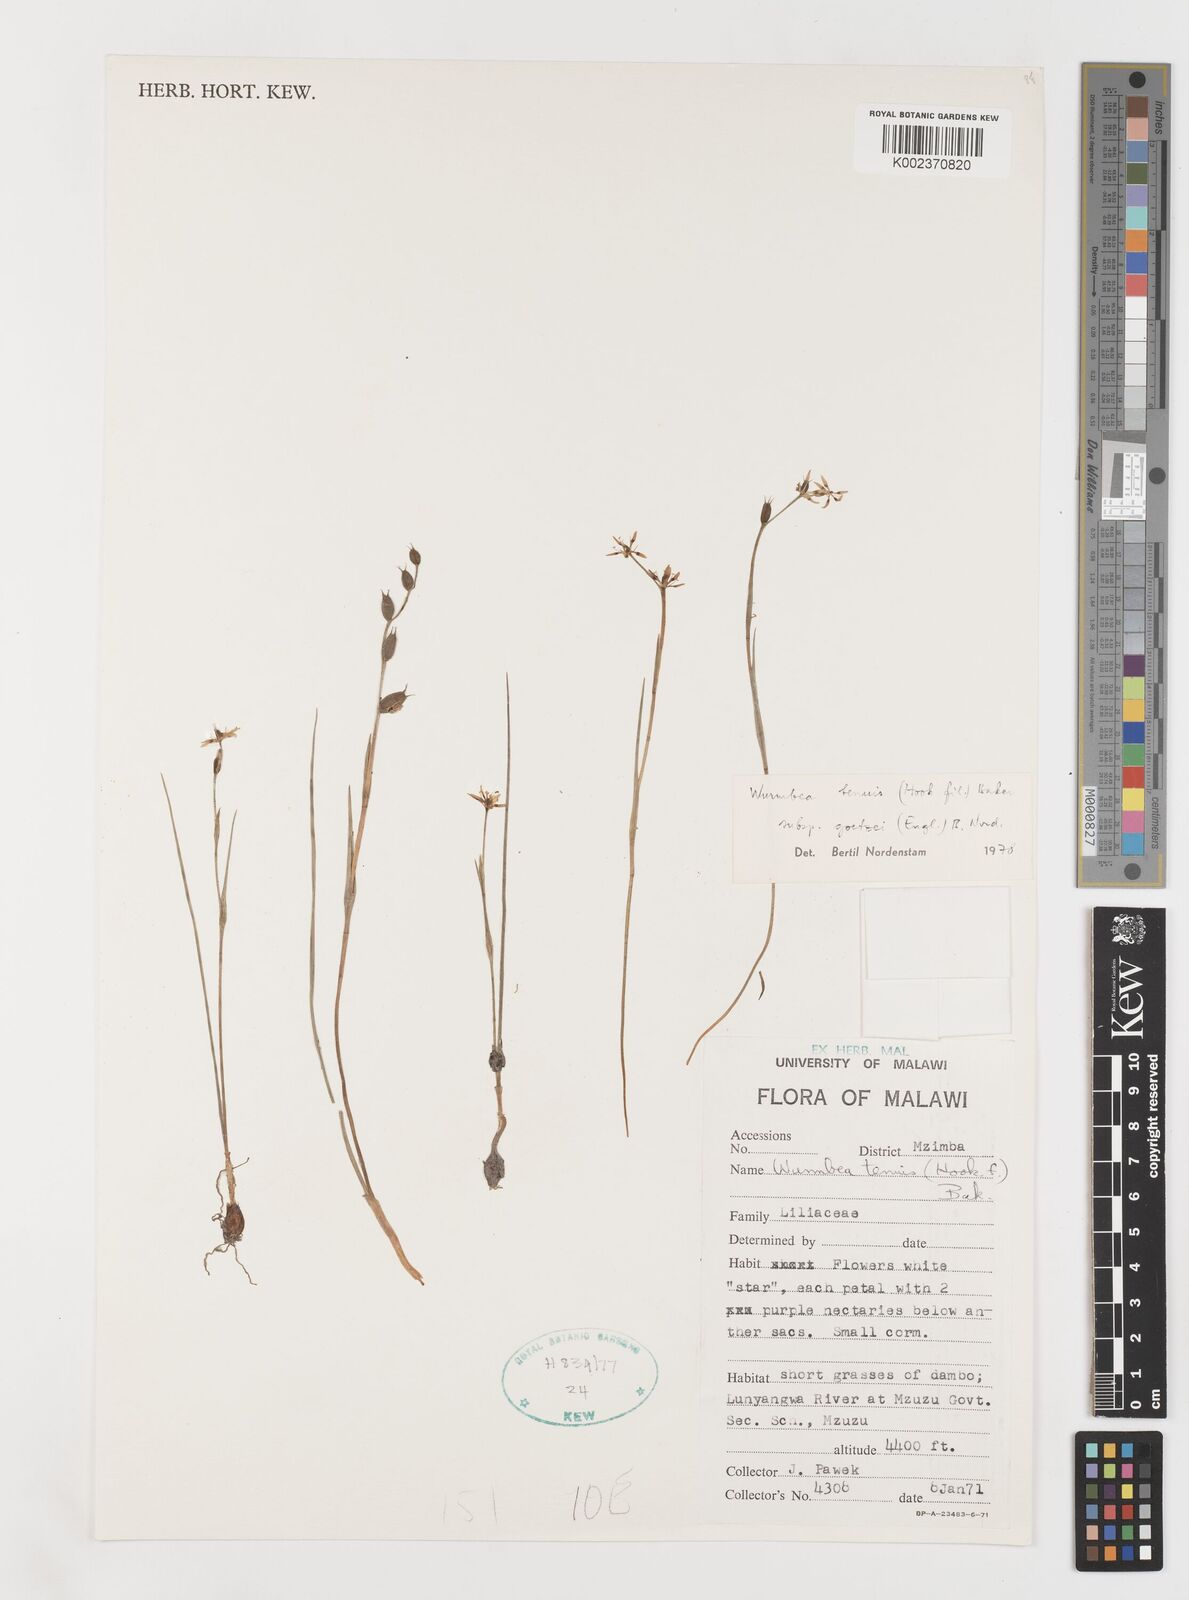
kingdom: Plantae
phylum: Tracheophyta
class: Liliopsida
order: Liliales
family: Colchicaceae
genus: Wurmbea
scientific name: Wurmbea tenuis
